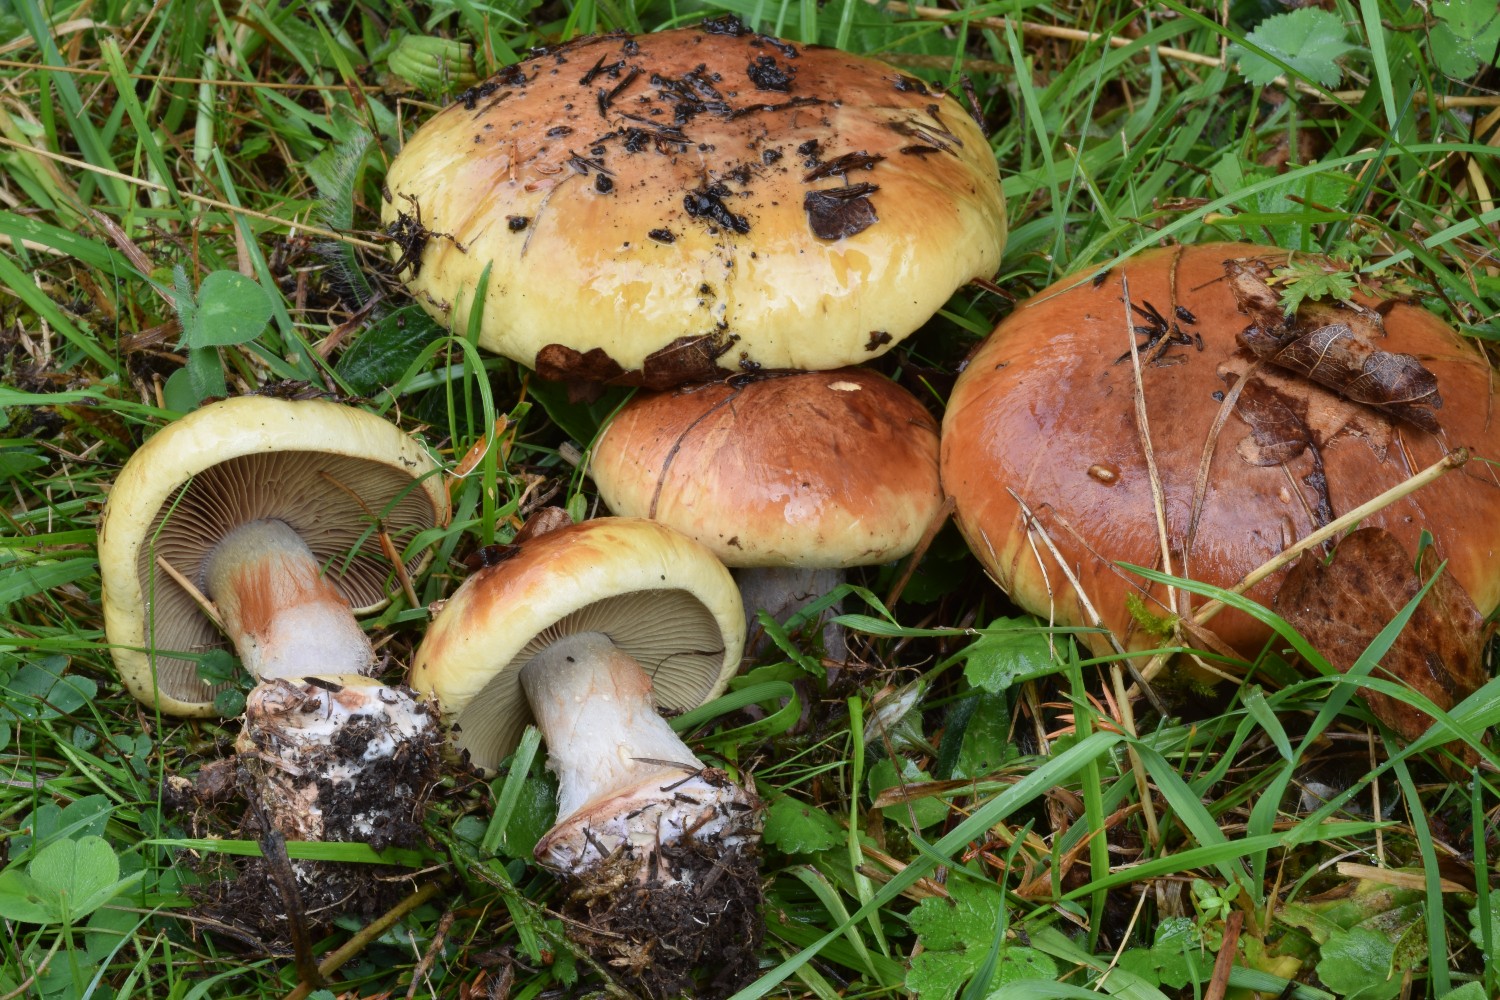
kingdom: Fungi
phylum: Basidiomycota
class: Agaricomycetes
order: Agaricales
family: Cortinariaceae
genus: Calonarius
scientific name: Calonarius prasinus
